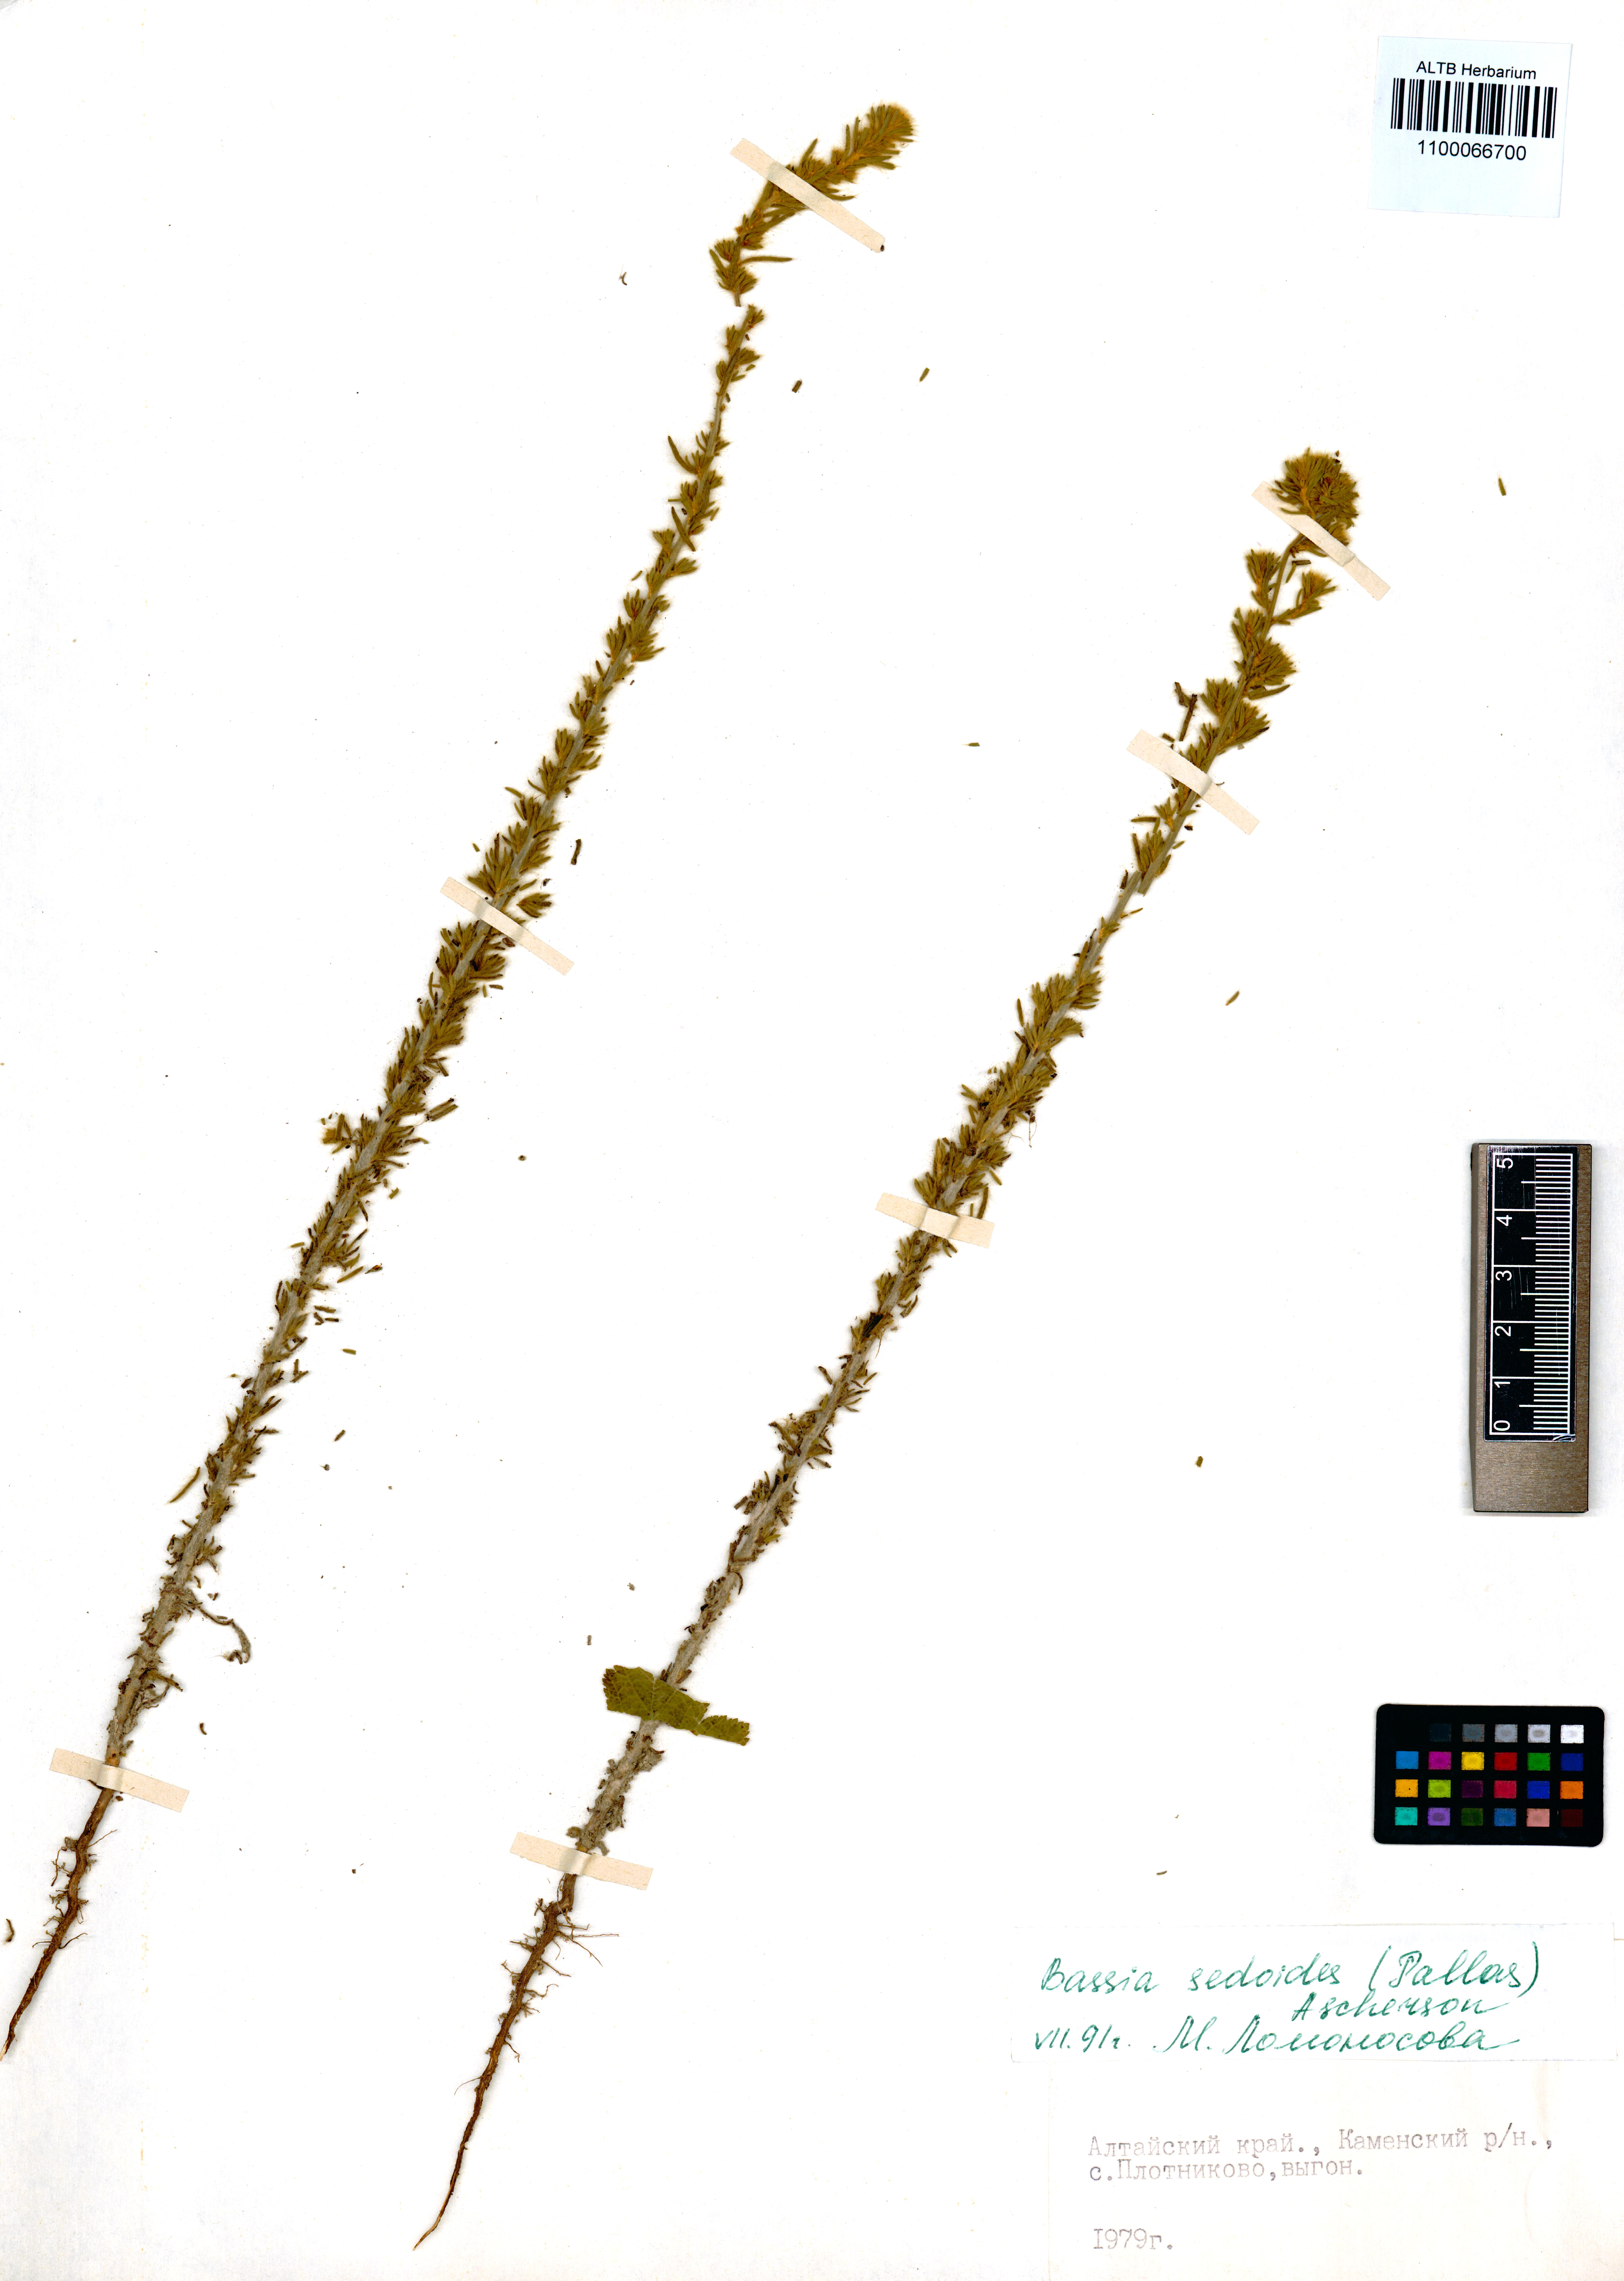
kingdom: Plantae
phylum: Tracheophyta
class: Magnoliopsida
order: Caryophyllales
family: Amaranthaceae
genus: Sedobassia
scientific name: Sedobassia sedoides
